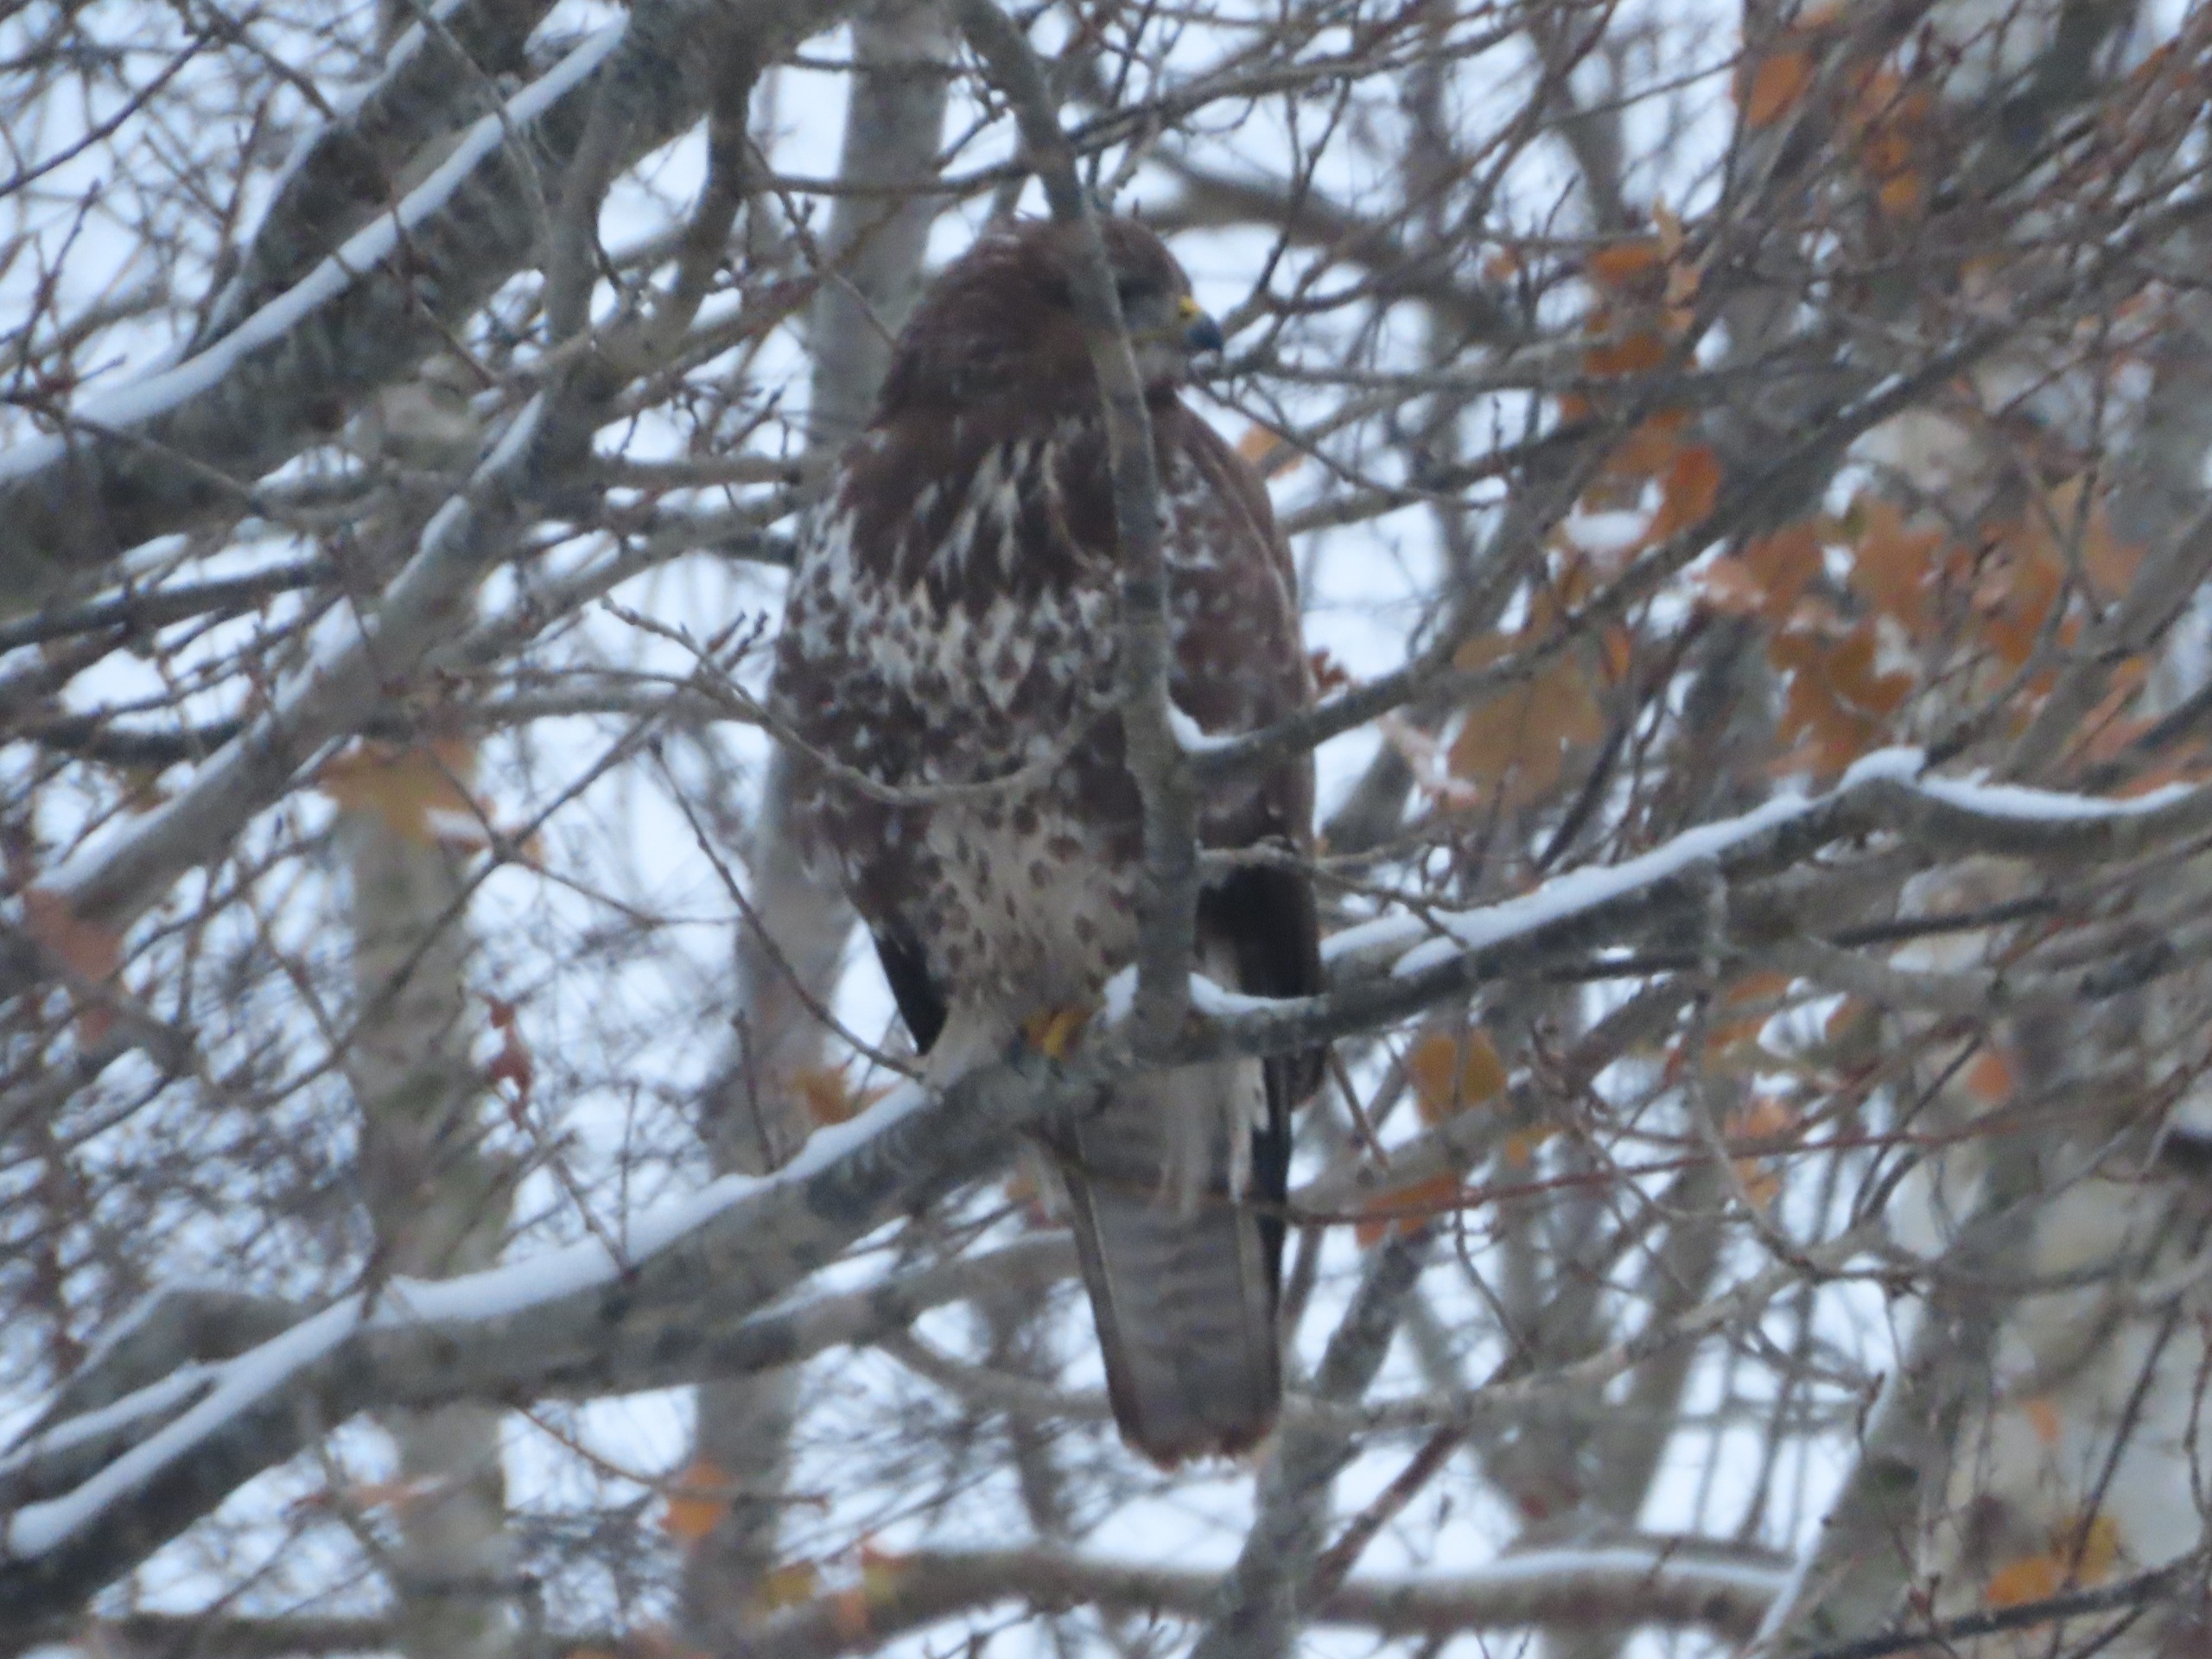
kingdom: Animalia
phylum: Chordata
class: Aves
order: Accipitriformes
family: Accipitridae
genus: Buteo
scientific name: Buteo buteo
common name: Musvåge
